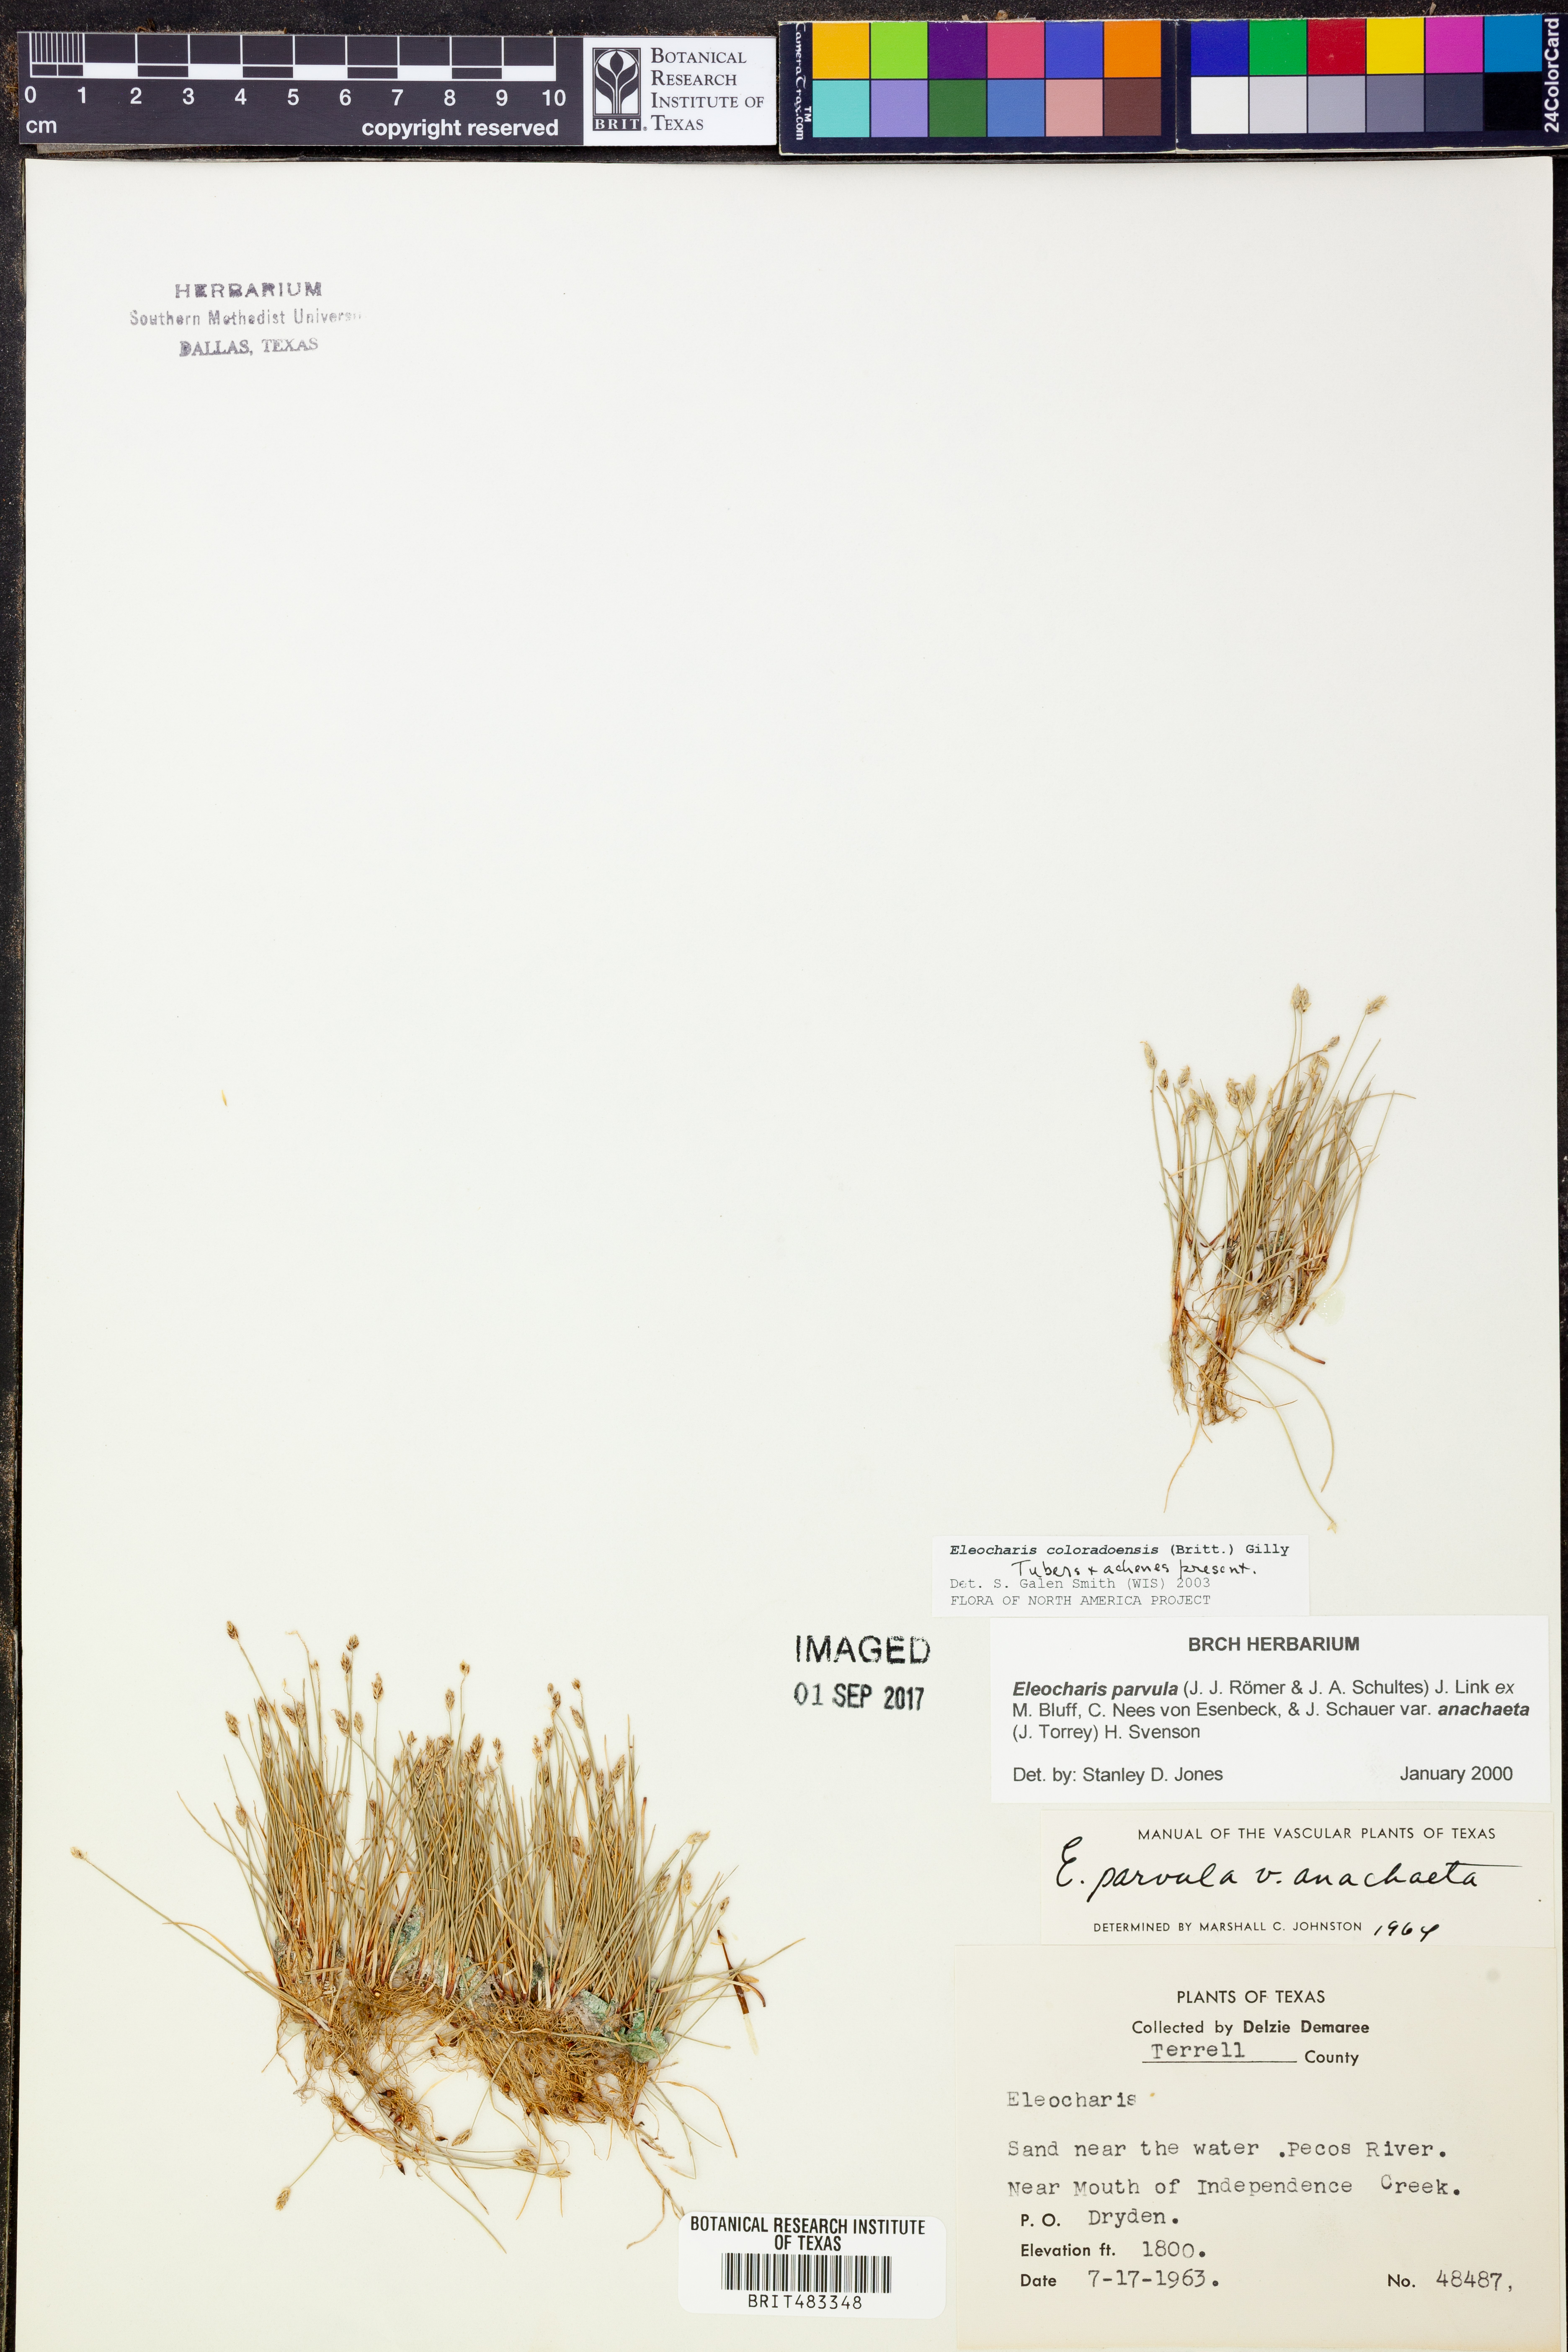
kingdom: Plantae
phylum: Tracheophyta
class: Liliopsida
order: Poales
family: Cyperaceae
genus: Eleocharis
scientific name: Eleocharis coloradoensis
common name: Colorado spikerush
